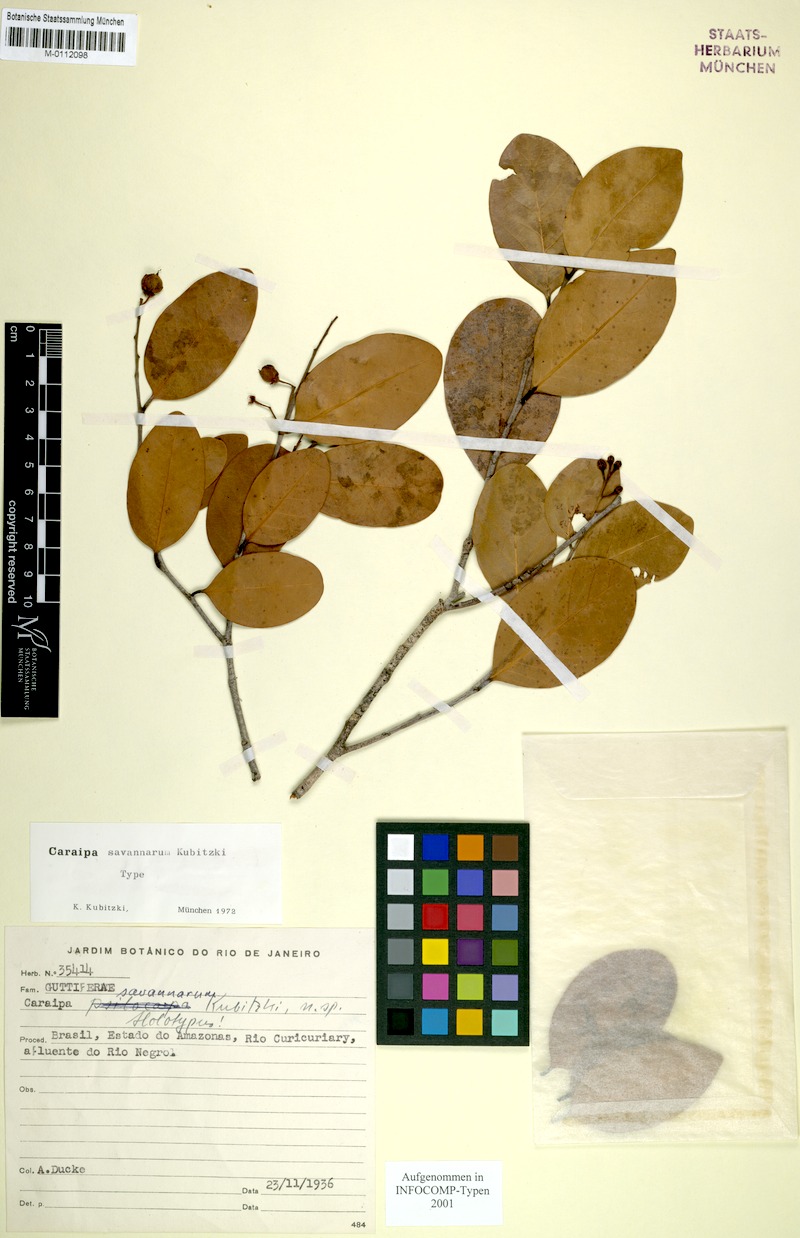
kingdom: Plantae
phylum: Tracheophyta
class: Magnoliopsida
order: Malpighiales
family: Calophyllaceae
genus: Caraipa
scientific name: Caraipa savannarum
